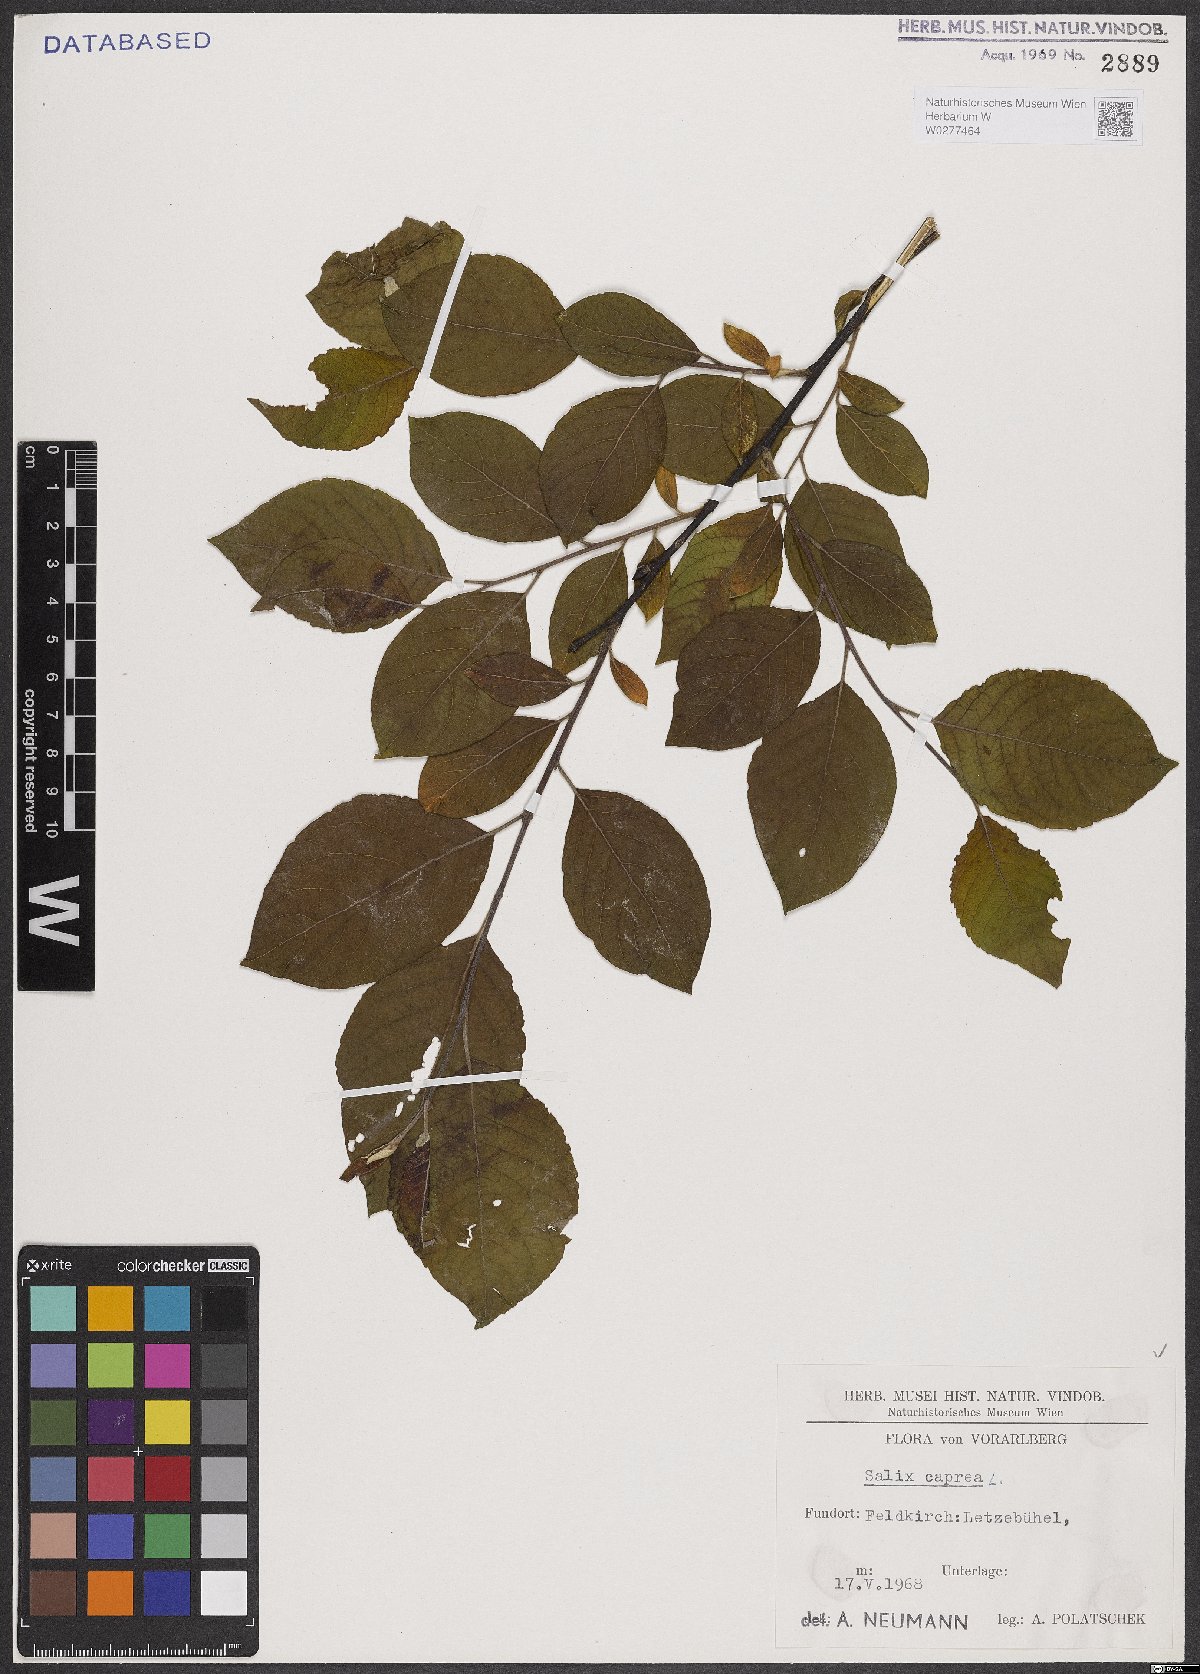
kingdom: Plantae
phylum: Tracheophyta
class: Magnoliopsida
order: Malpighiales
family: Salicaceae
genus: Salix
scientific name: Salix caprea
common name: Goat willow
